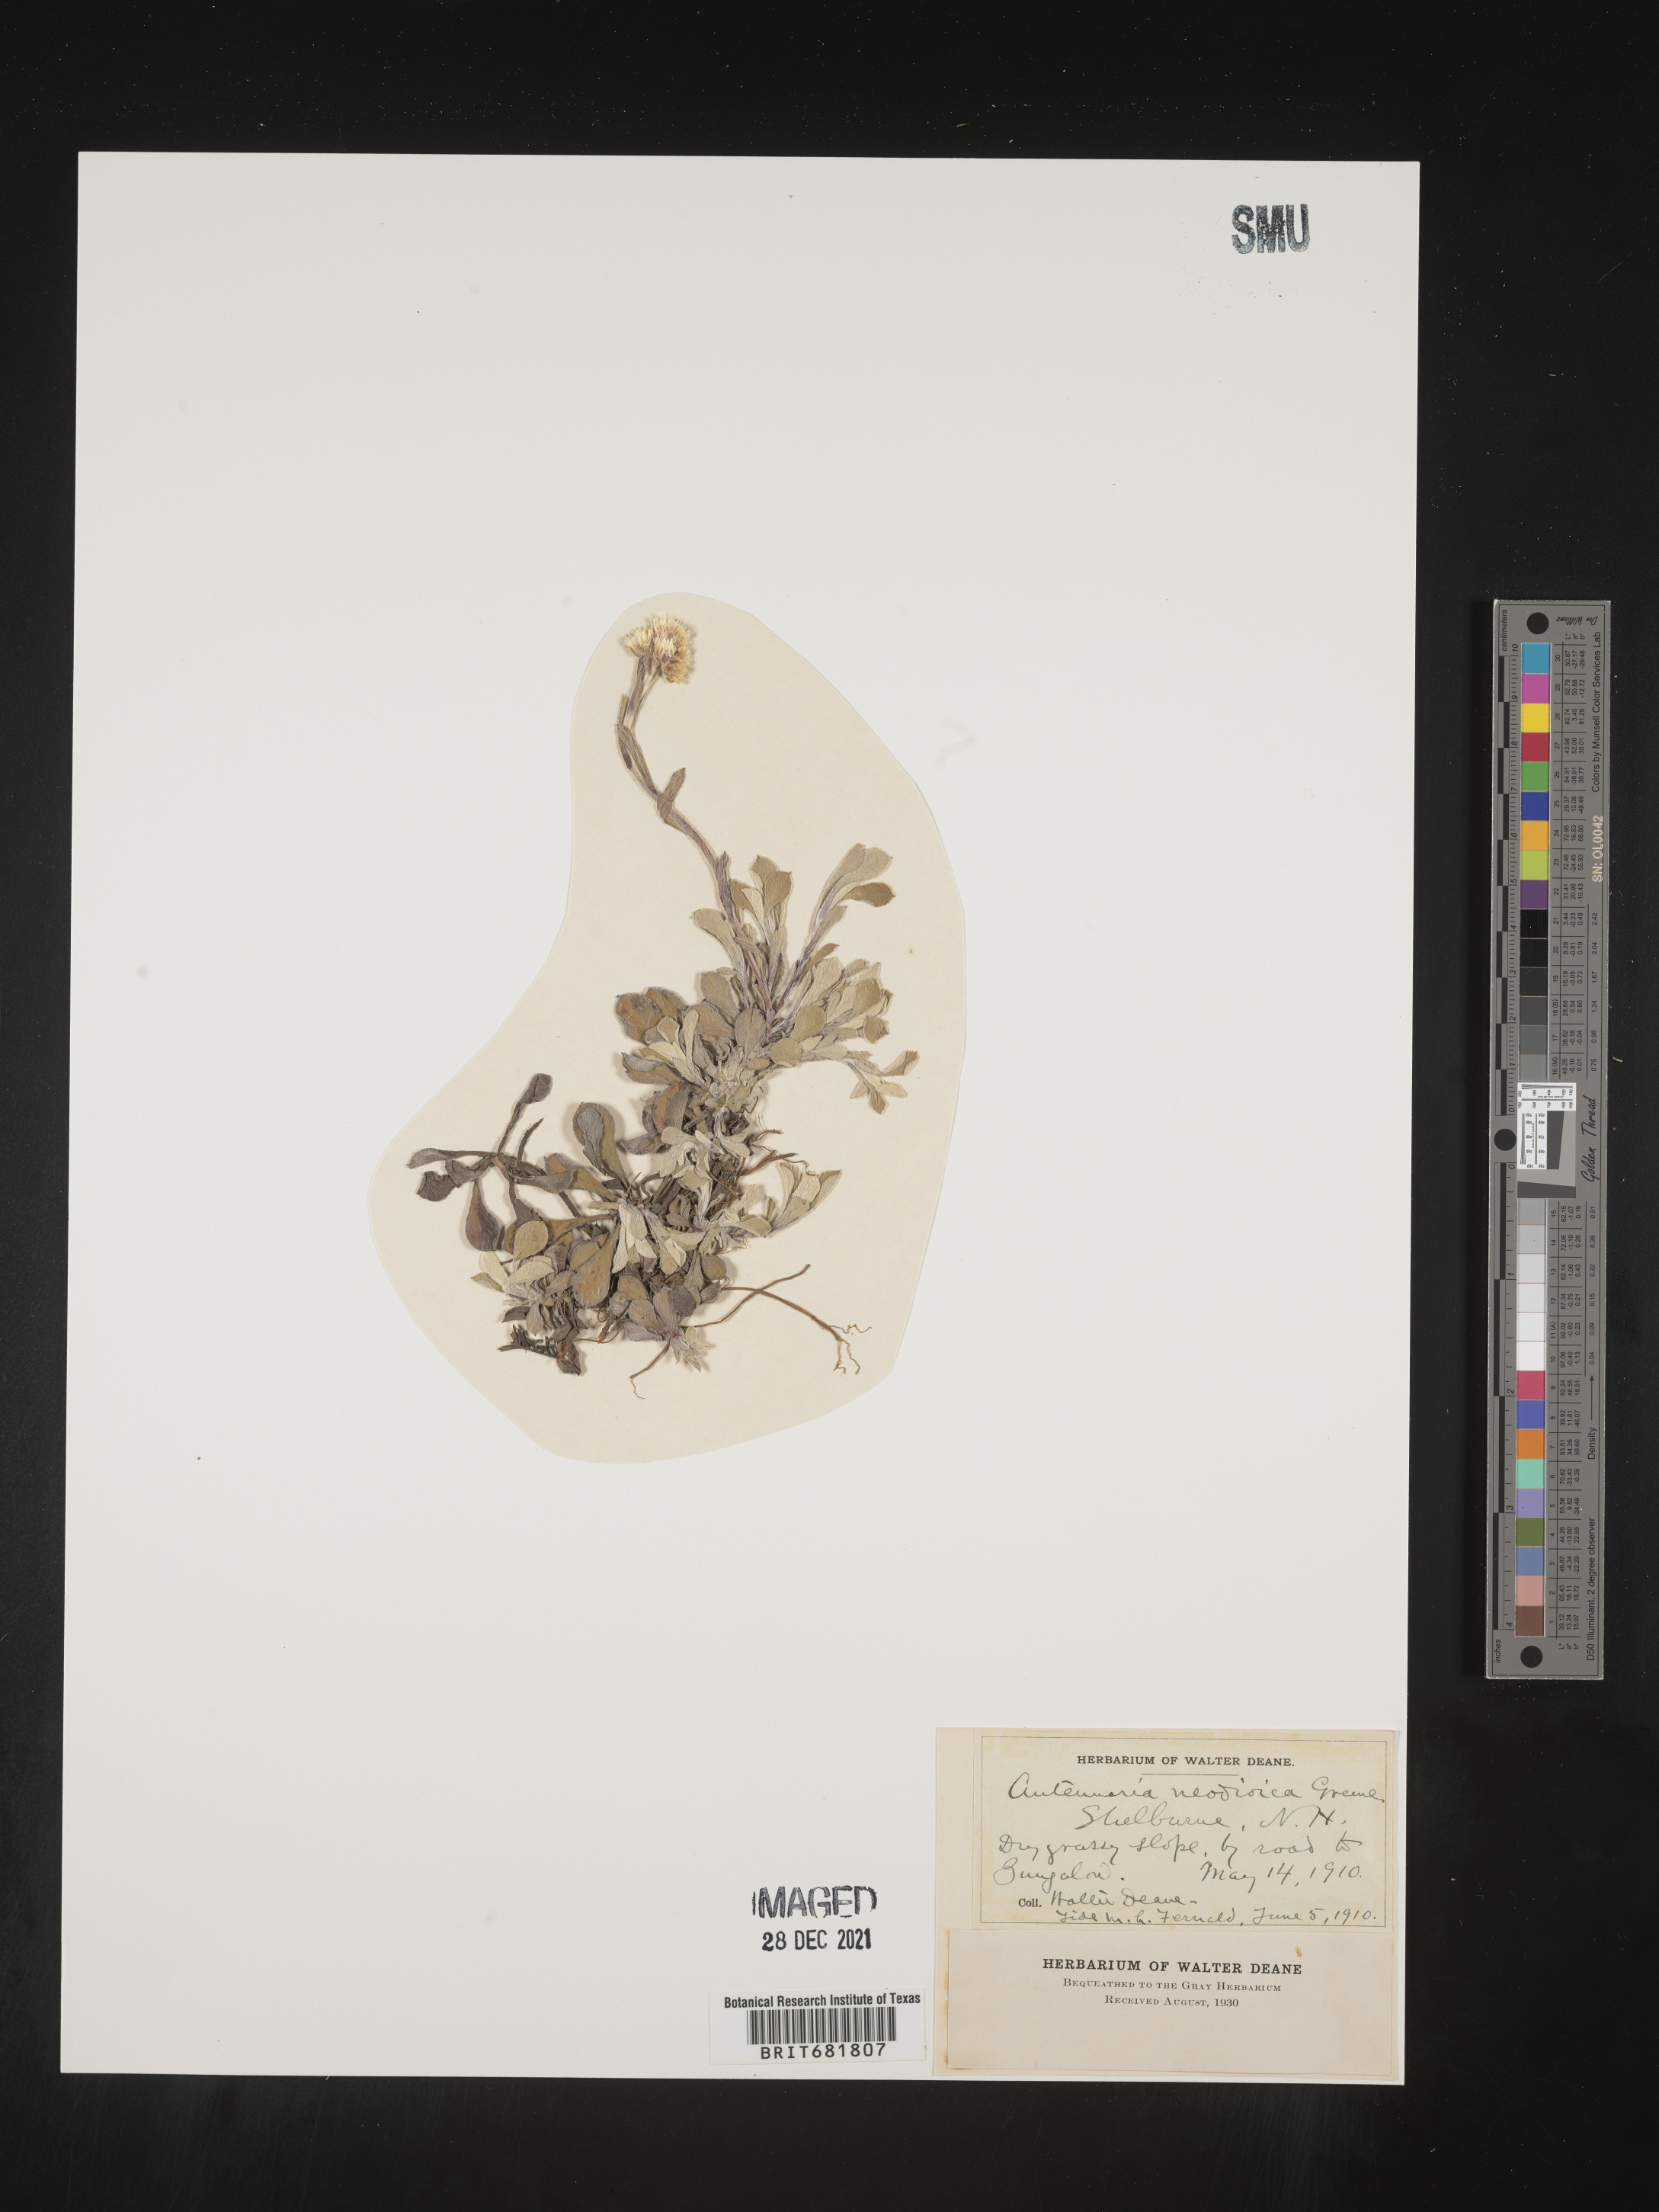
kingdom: Plantae
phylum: Tracheophyta
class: Magnoliopsida
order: Asterales
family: Asteraceae
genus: Antennaria
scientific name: Antennaria howellii
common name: Howell's pussytoes
